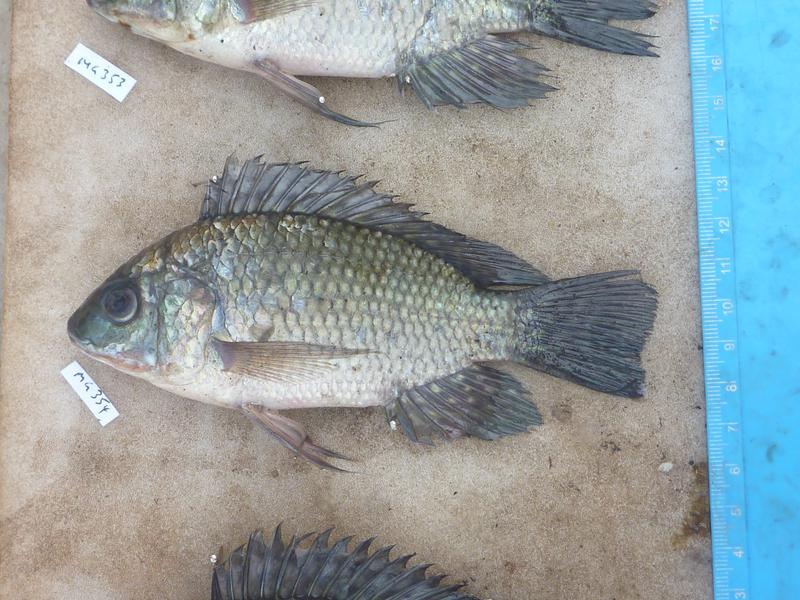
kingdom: Animalia
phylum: Chordata
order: Perciformes
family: Cichlidae
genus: Oreochromis
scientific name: Oreochromis leucostictus
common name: Blue spotted tilapia
